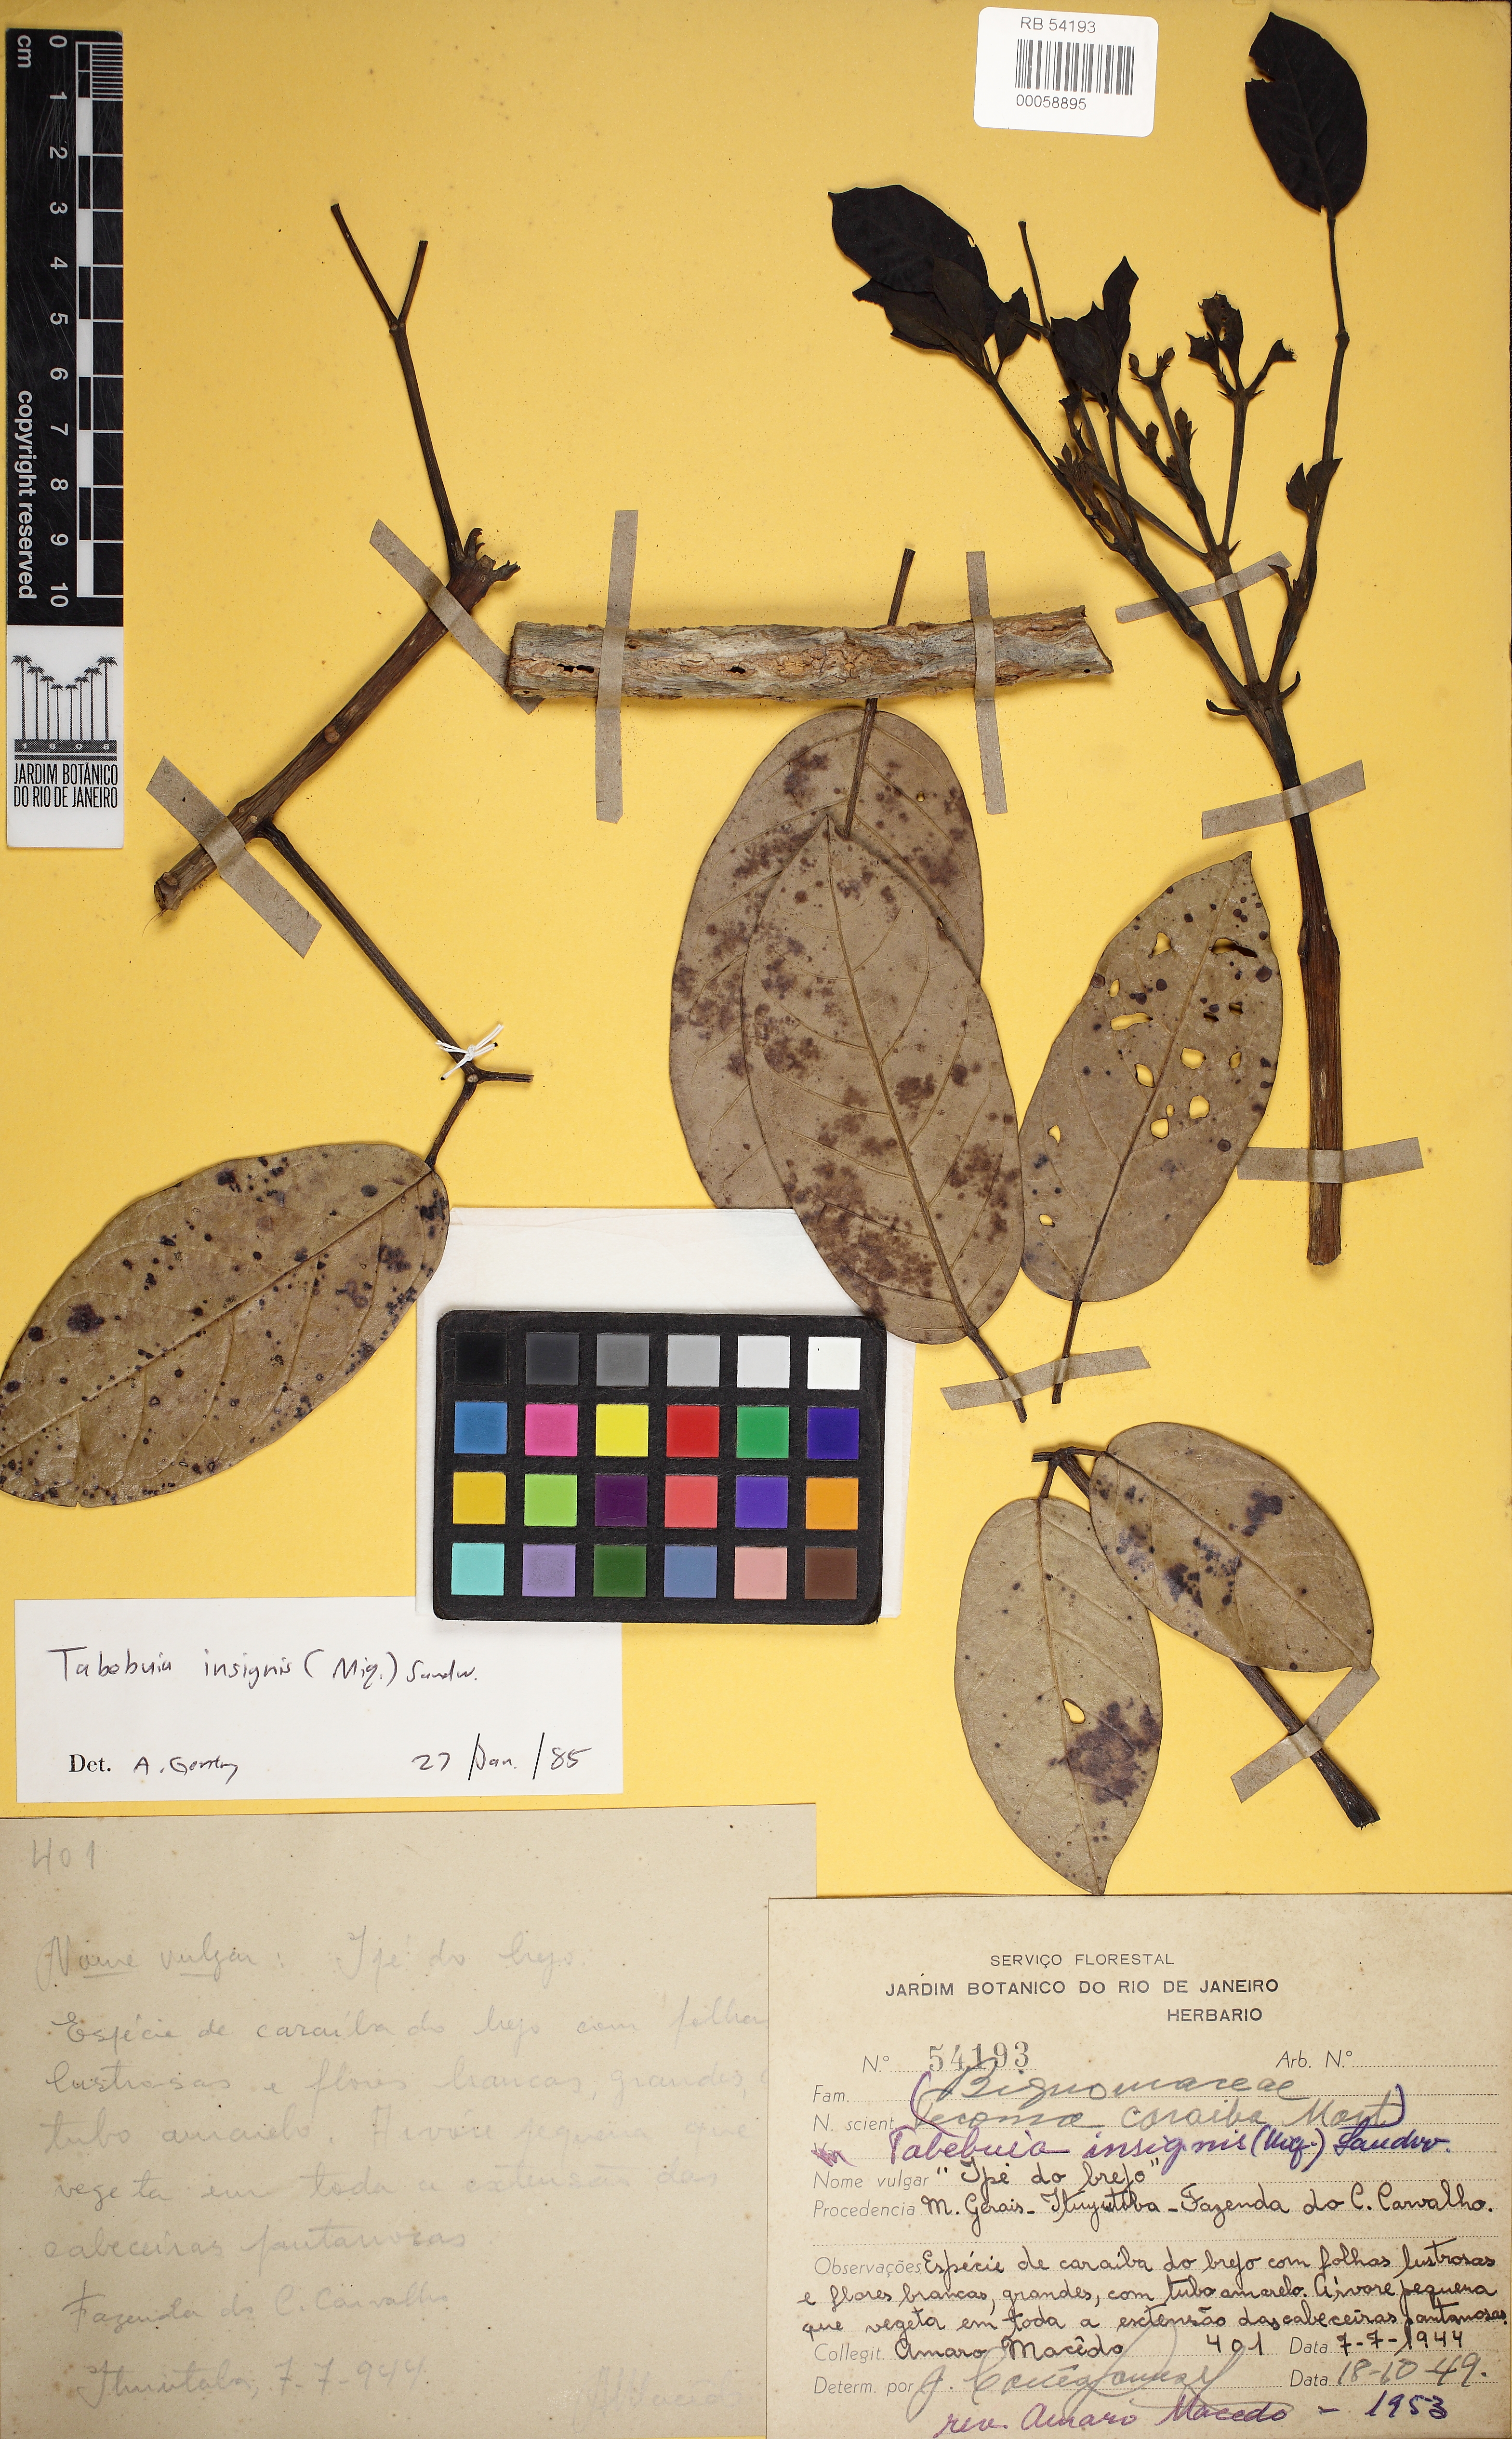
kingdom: Plantae
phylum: Tracheophyta
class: Magnoliopsida
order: Lamiales
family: Bignoniaceae
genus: Tabebuia
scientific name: Tabebuia insignis
